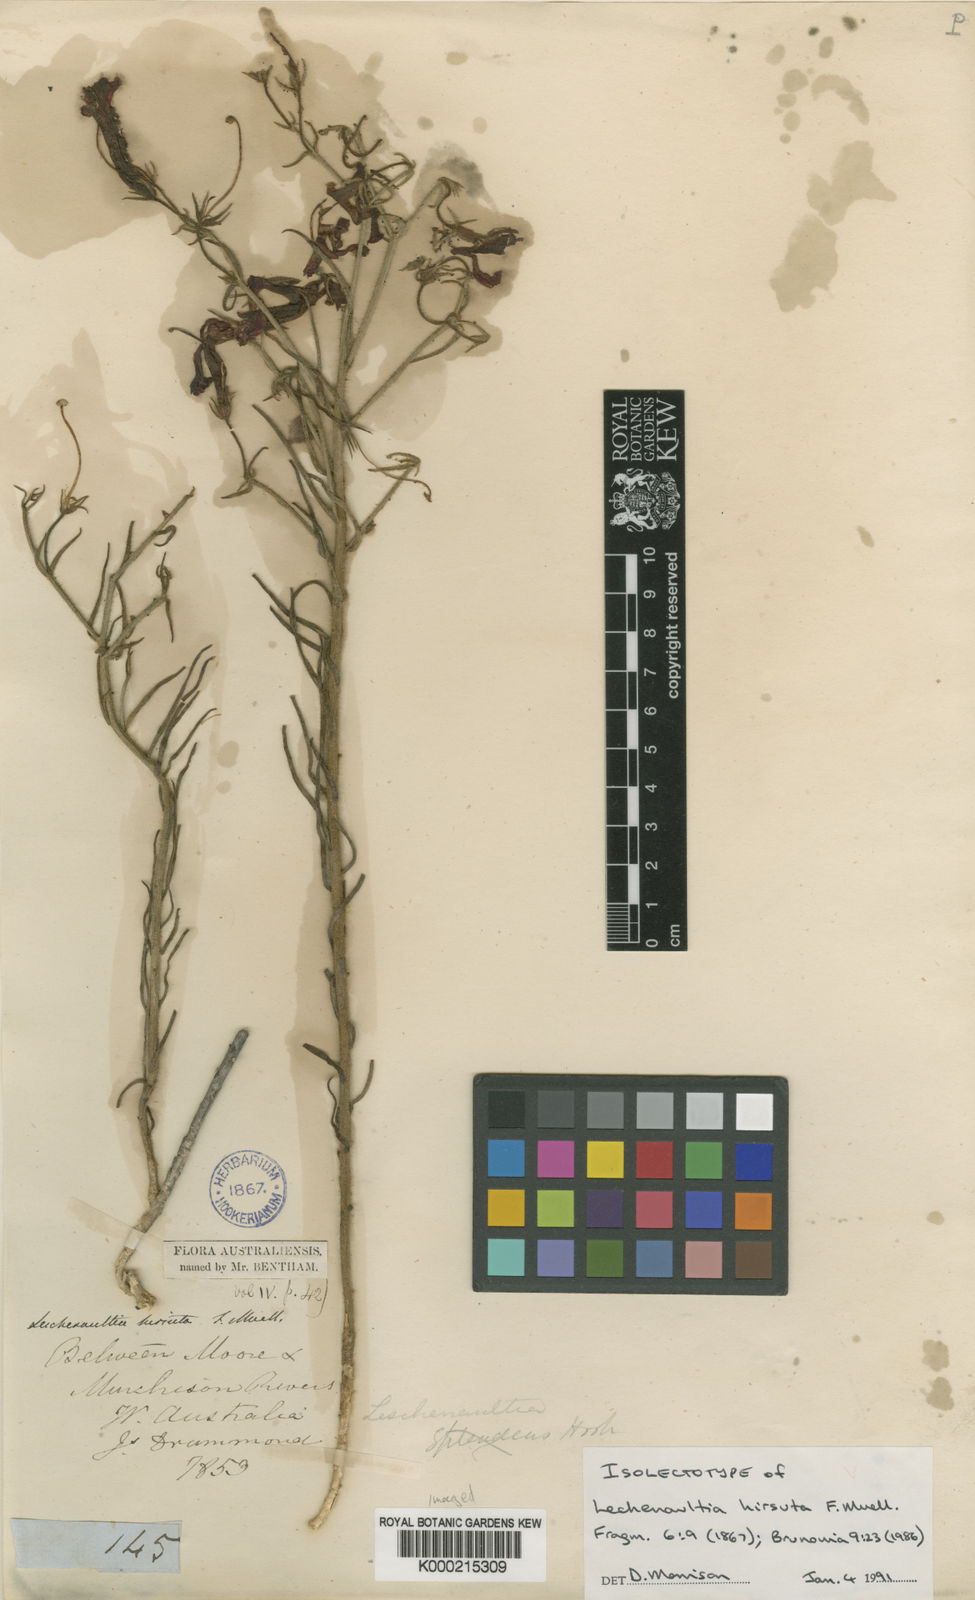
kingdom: Plantae
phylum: Tracheophyta
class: Magnoliopsida
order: Asterales
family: Goodeniaceae
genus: Leschenaultia
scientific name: Leschenaultia hirsuta
